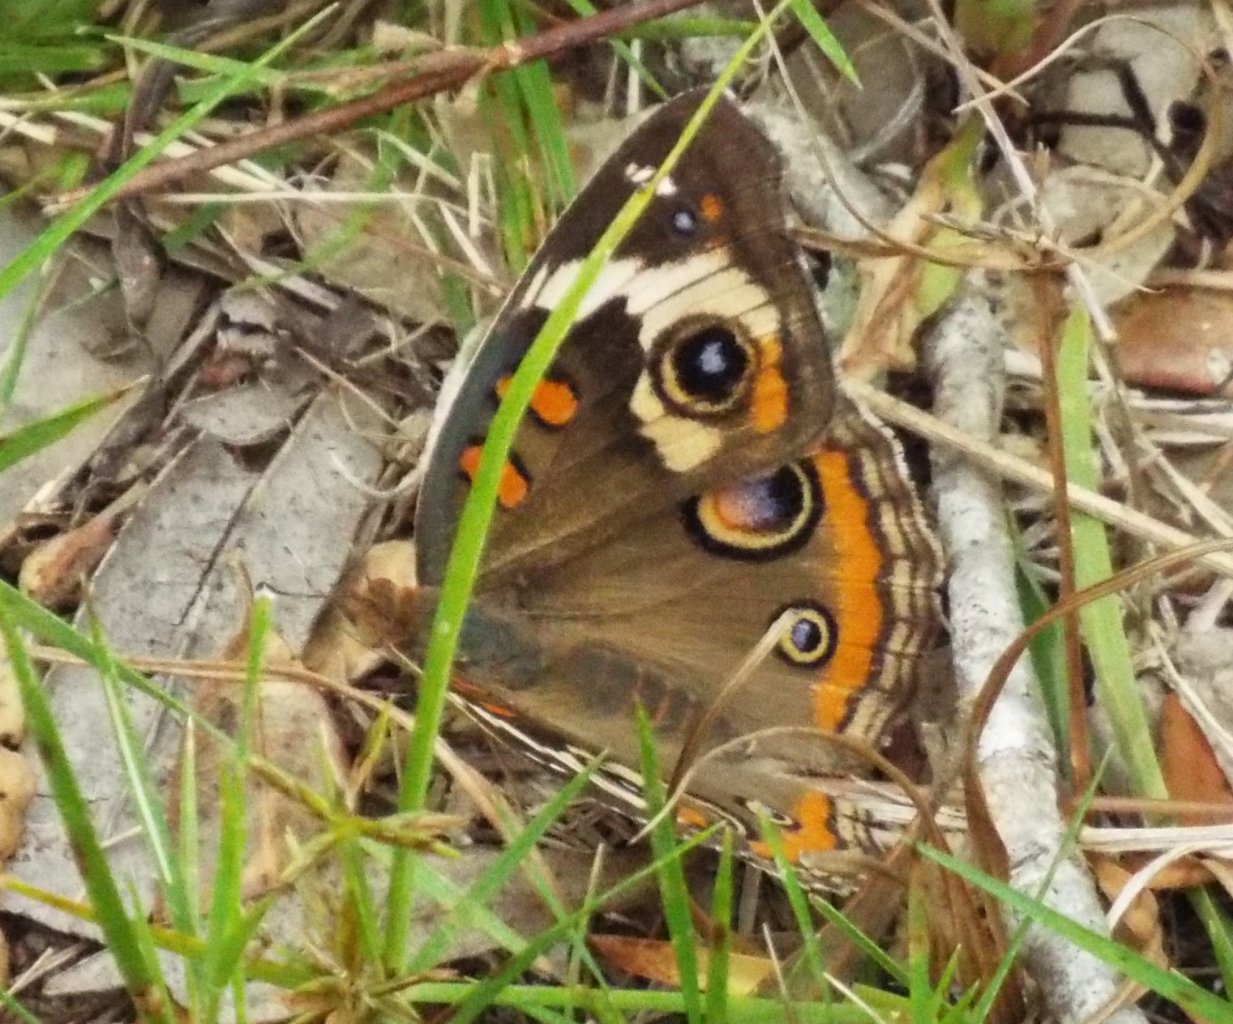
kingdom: Animalia
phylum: Arthropoda
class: Insecta
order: Lepidoptera
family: Nymphalidae
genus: Junonia
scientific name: Junonia coenia
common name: Common Buckeye
